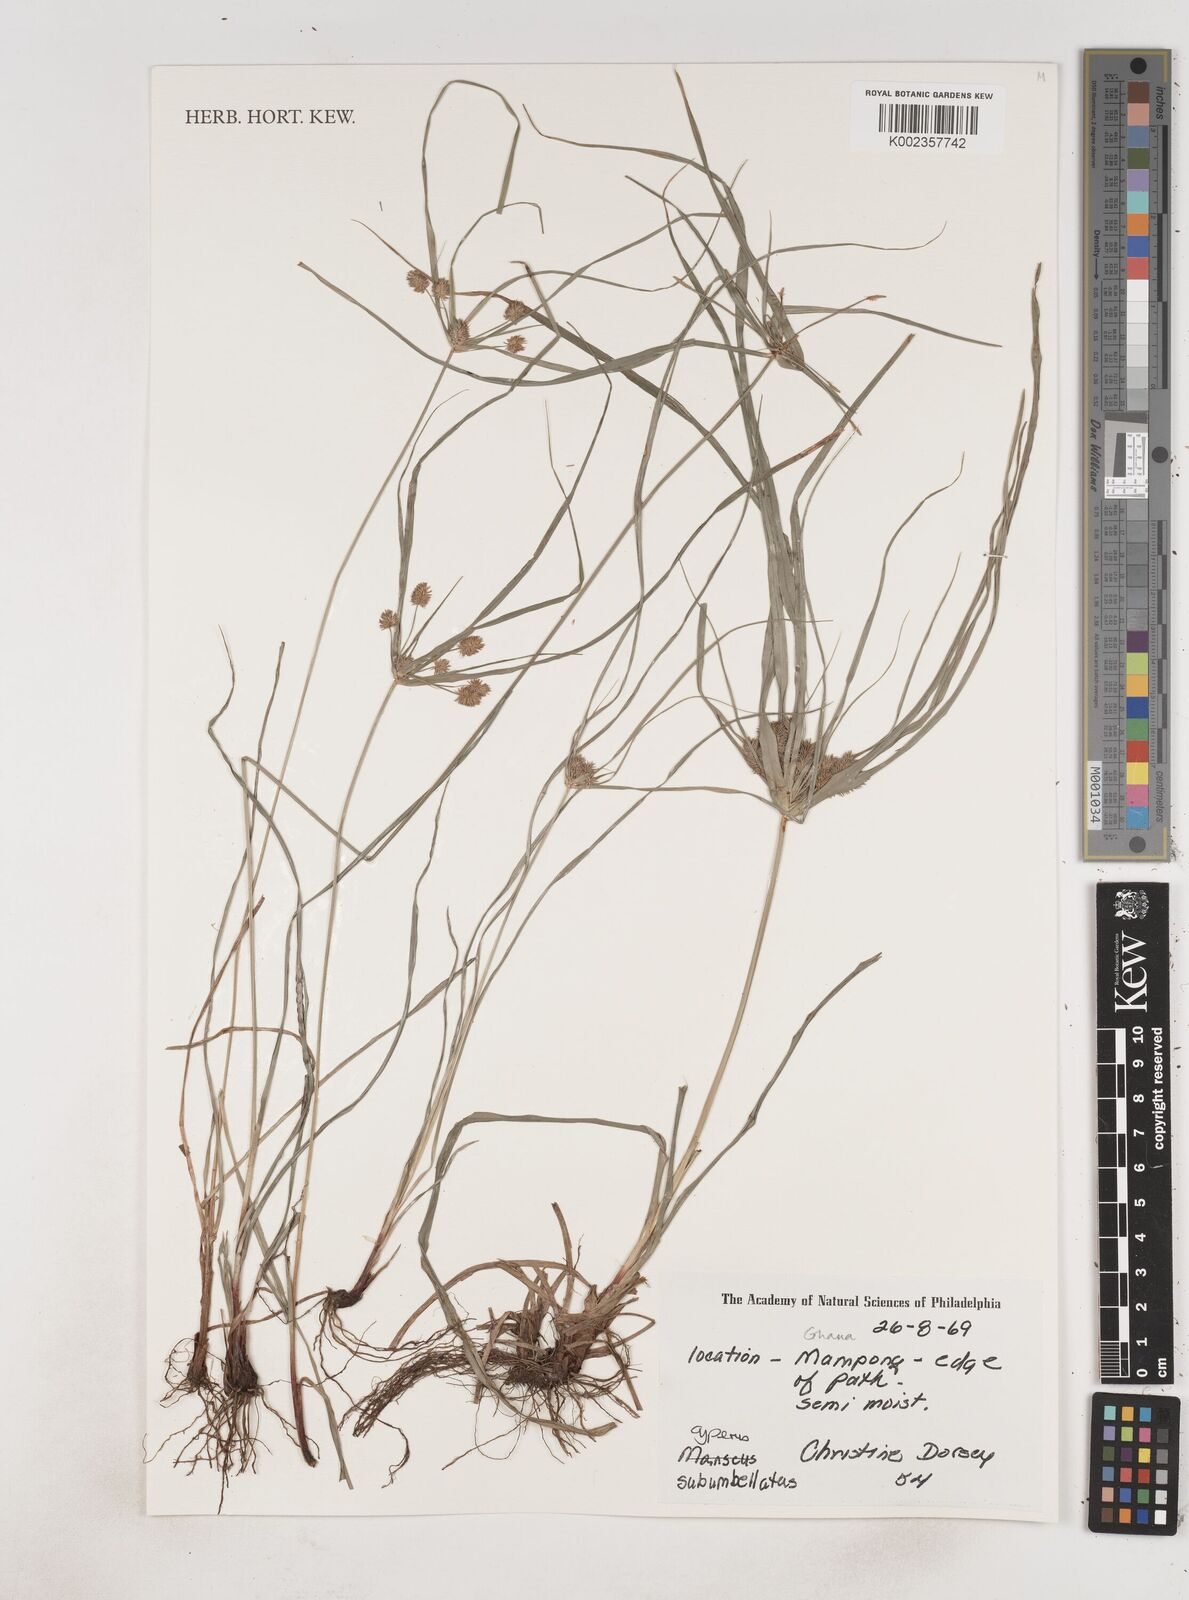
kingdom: Plantae
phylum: Tracheophyta
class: Liliopsida
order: Poales
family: Cyperaceae
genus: Cyperus
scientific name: Cyperus sublimis
